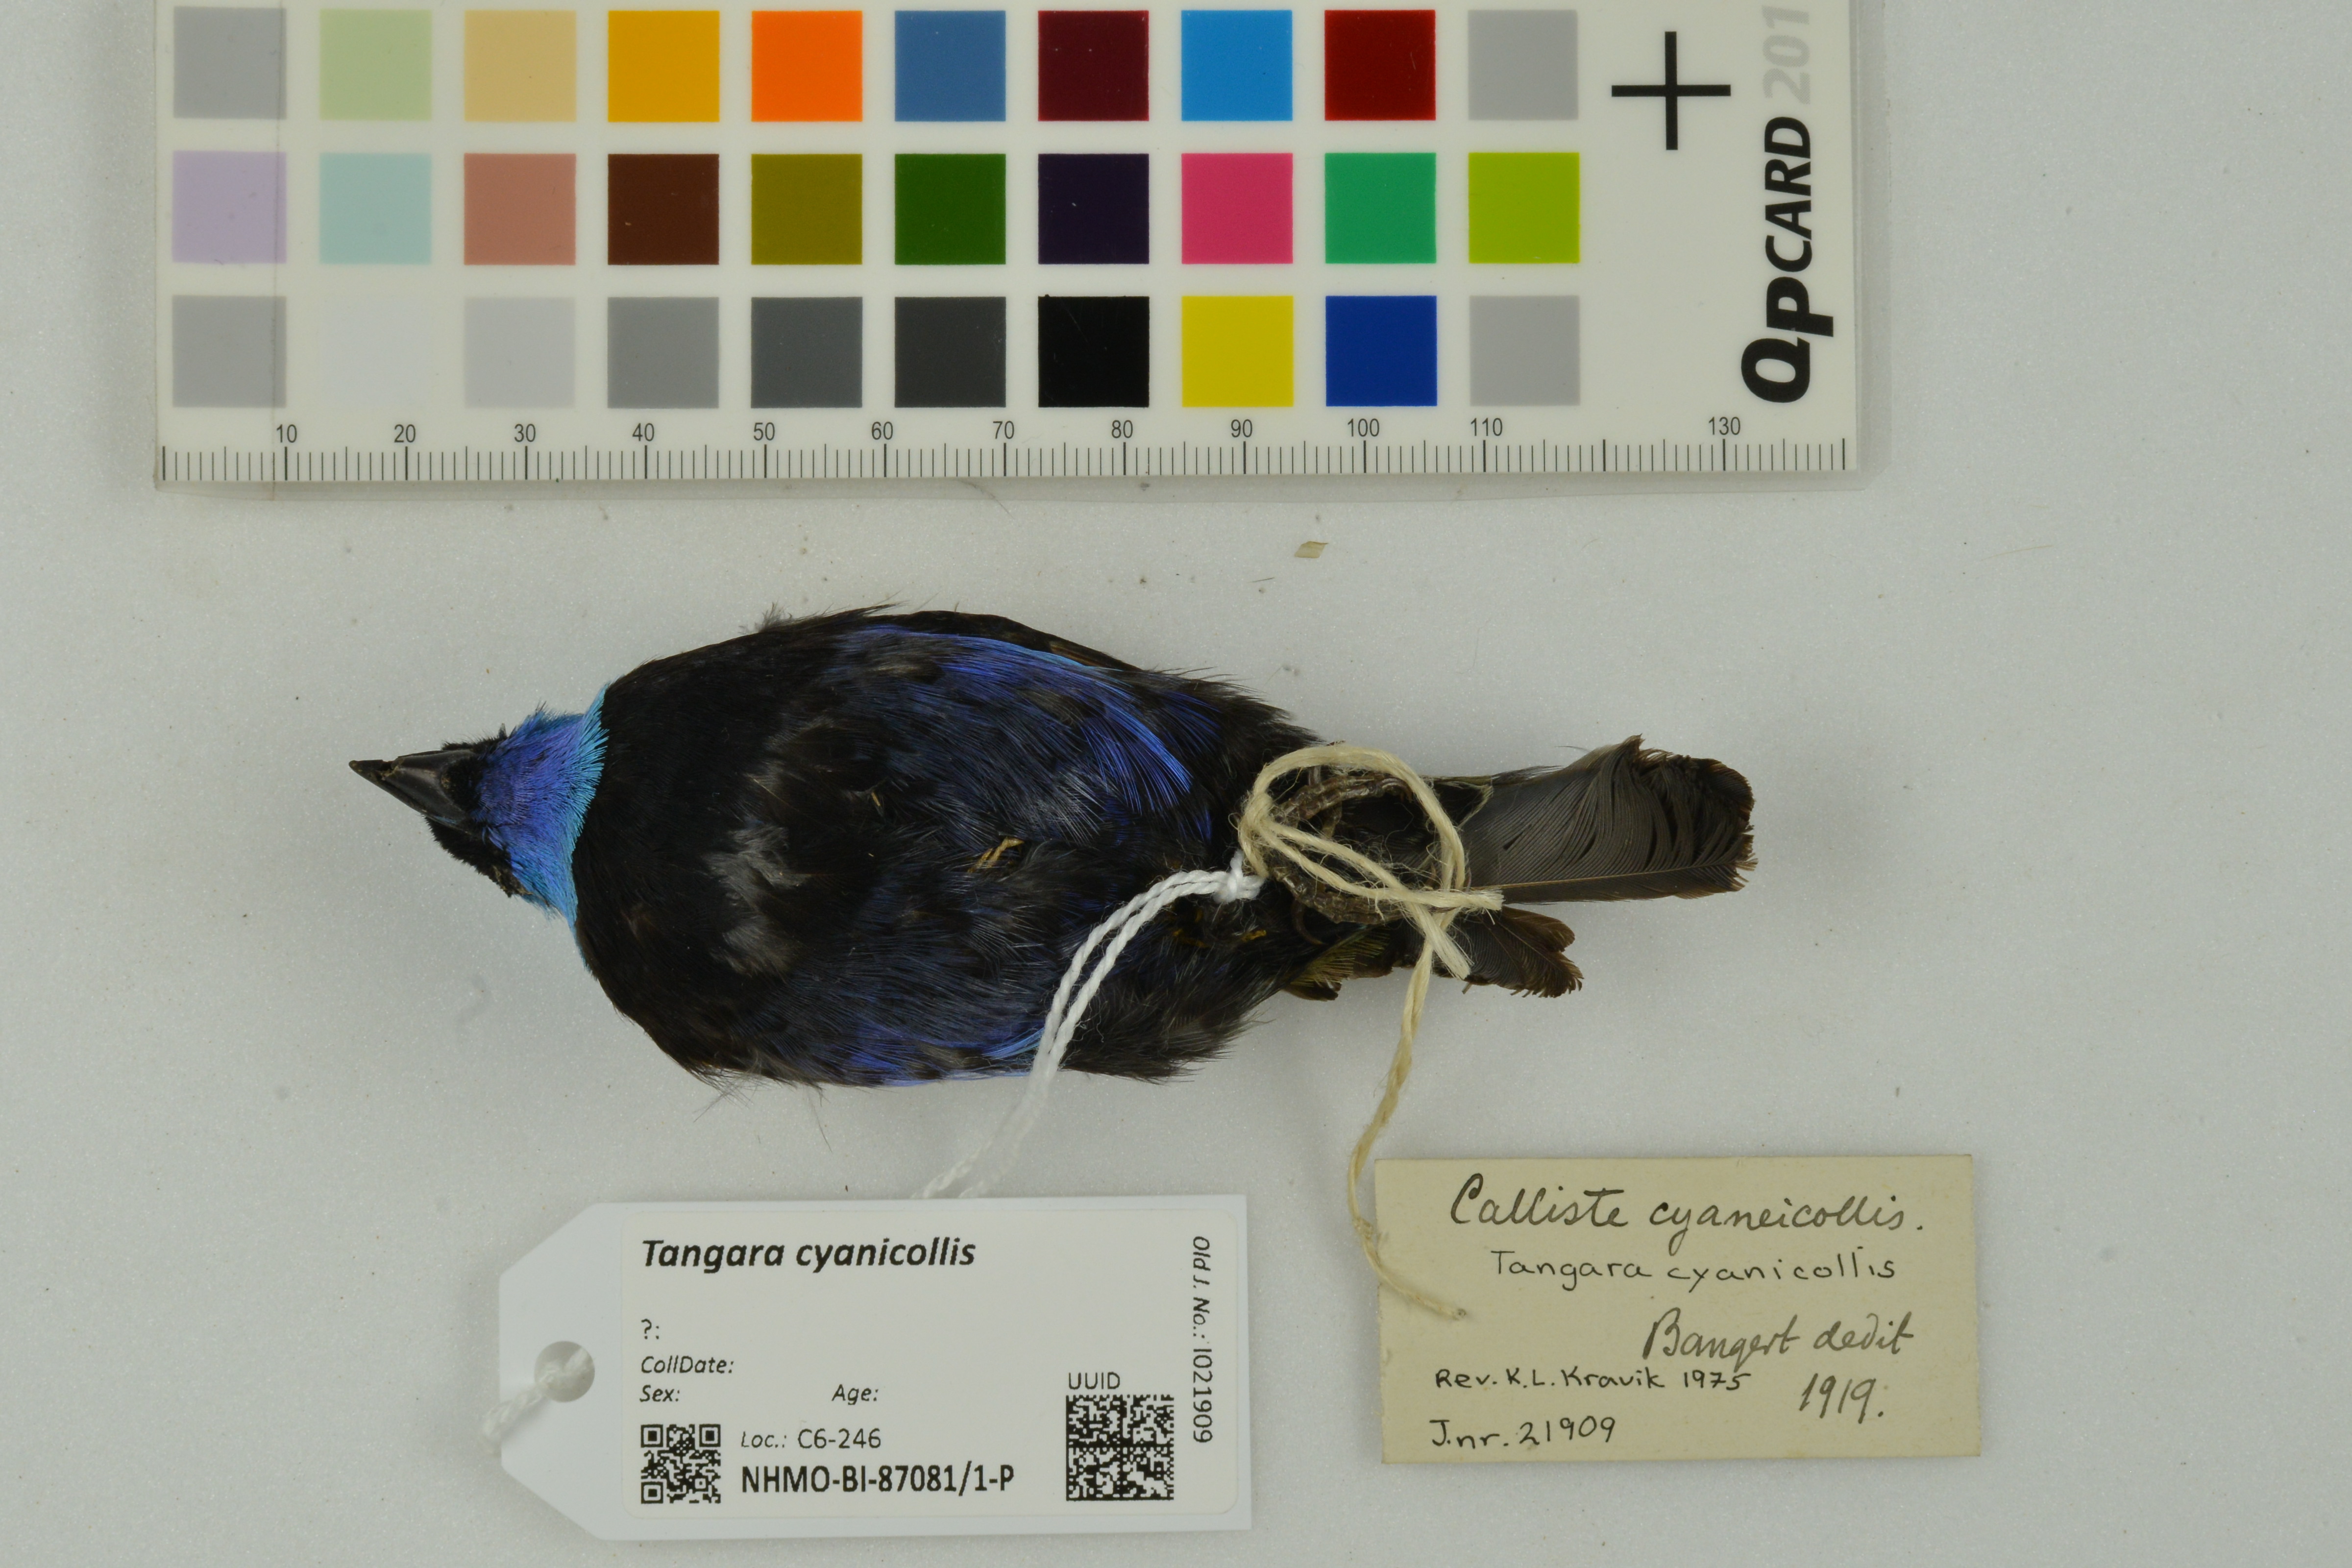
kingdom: Animalia
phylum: Chordata
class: Aves
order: Passeriformes
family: Thraupidae
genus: Stilpnia
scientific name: Stilpnia cyanicollis
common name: Blue-necked tanager
